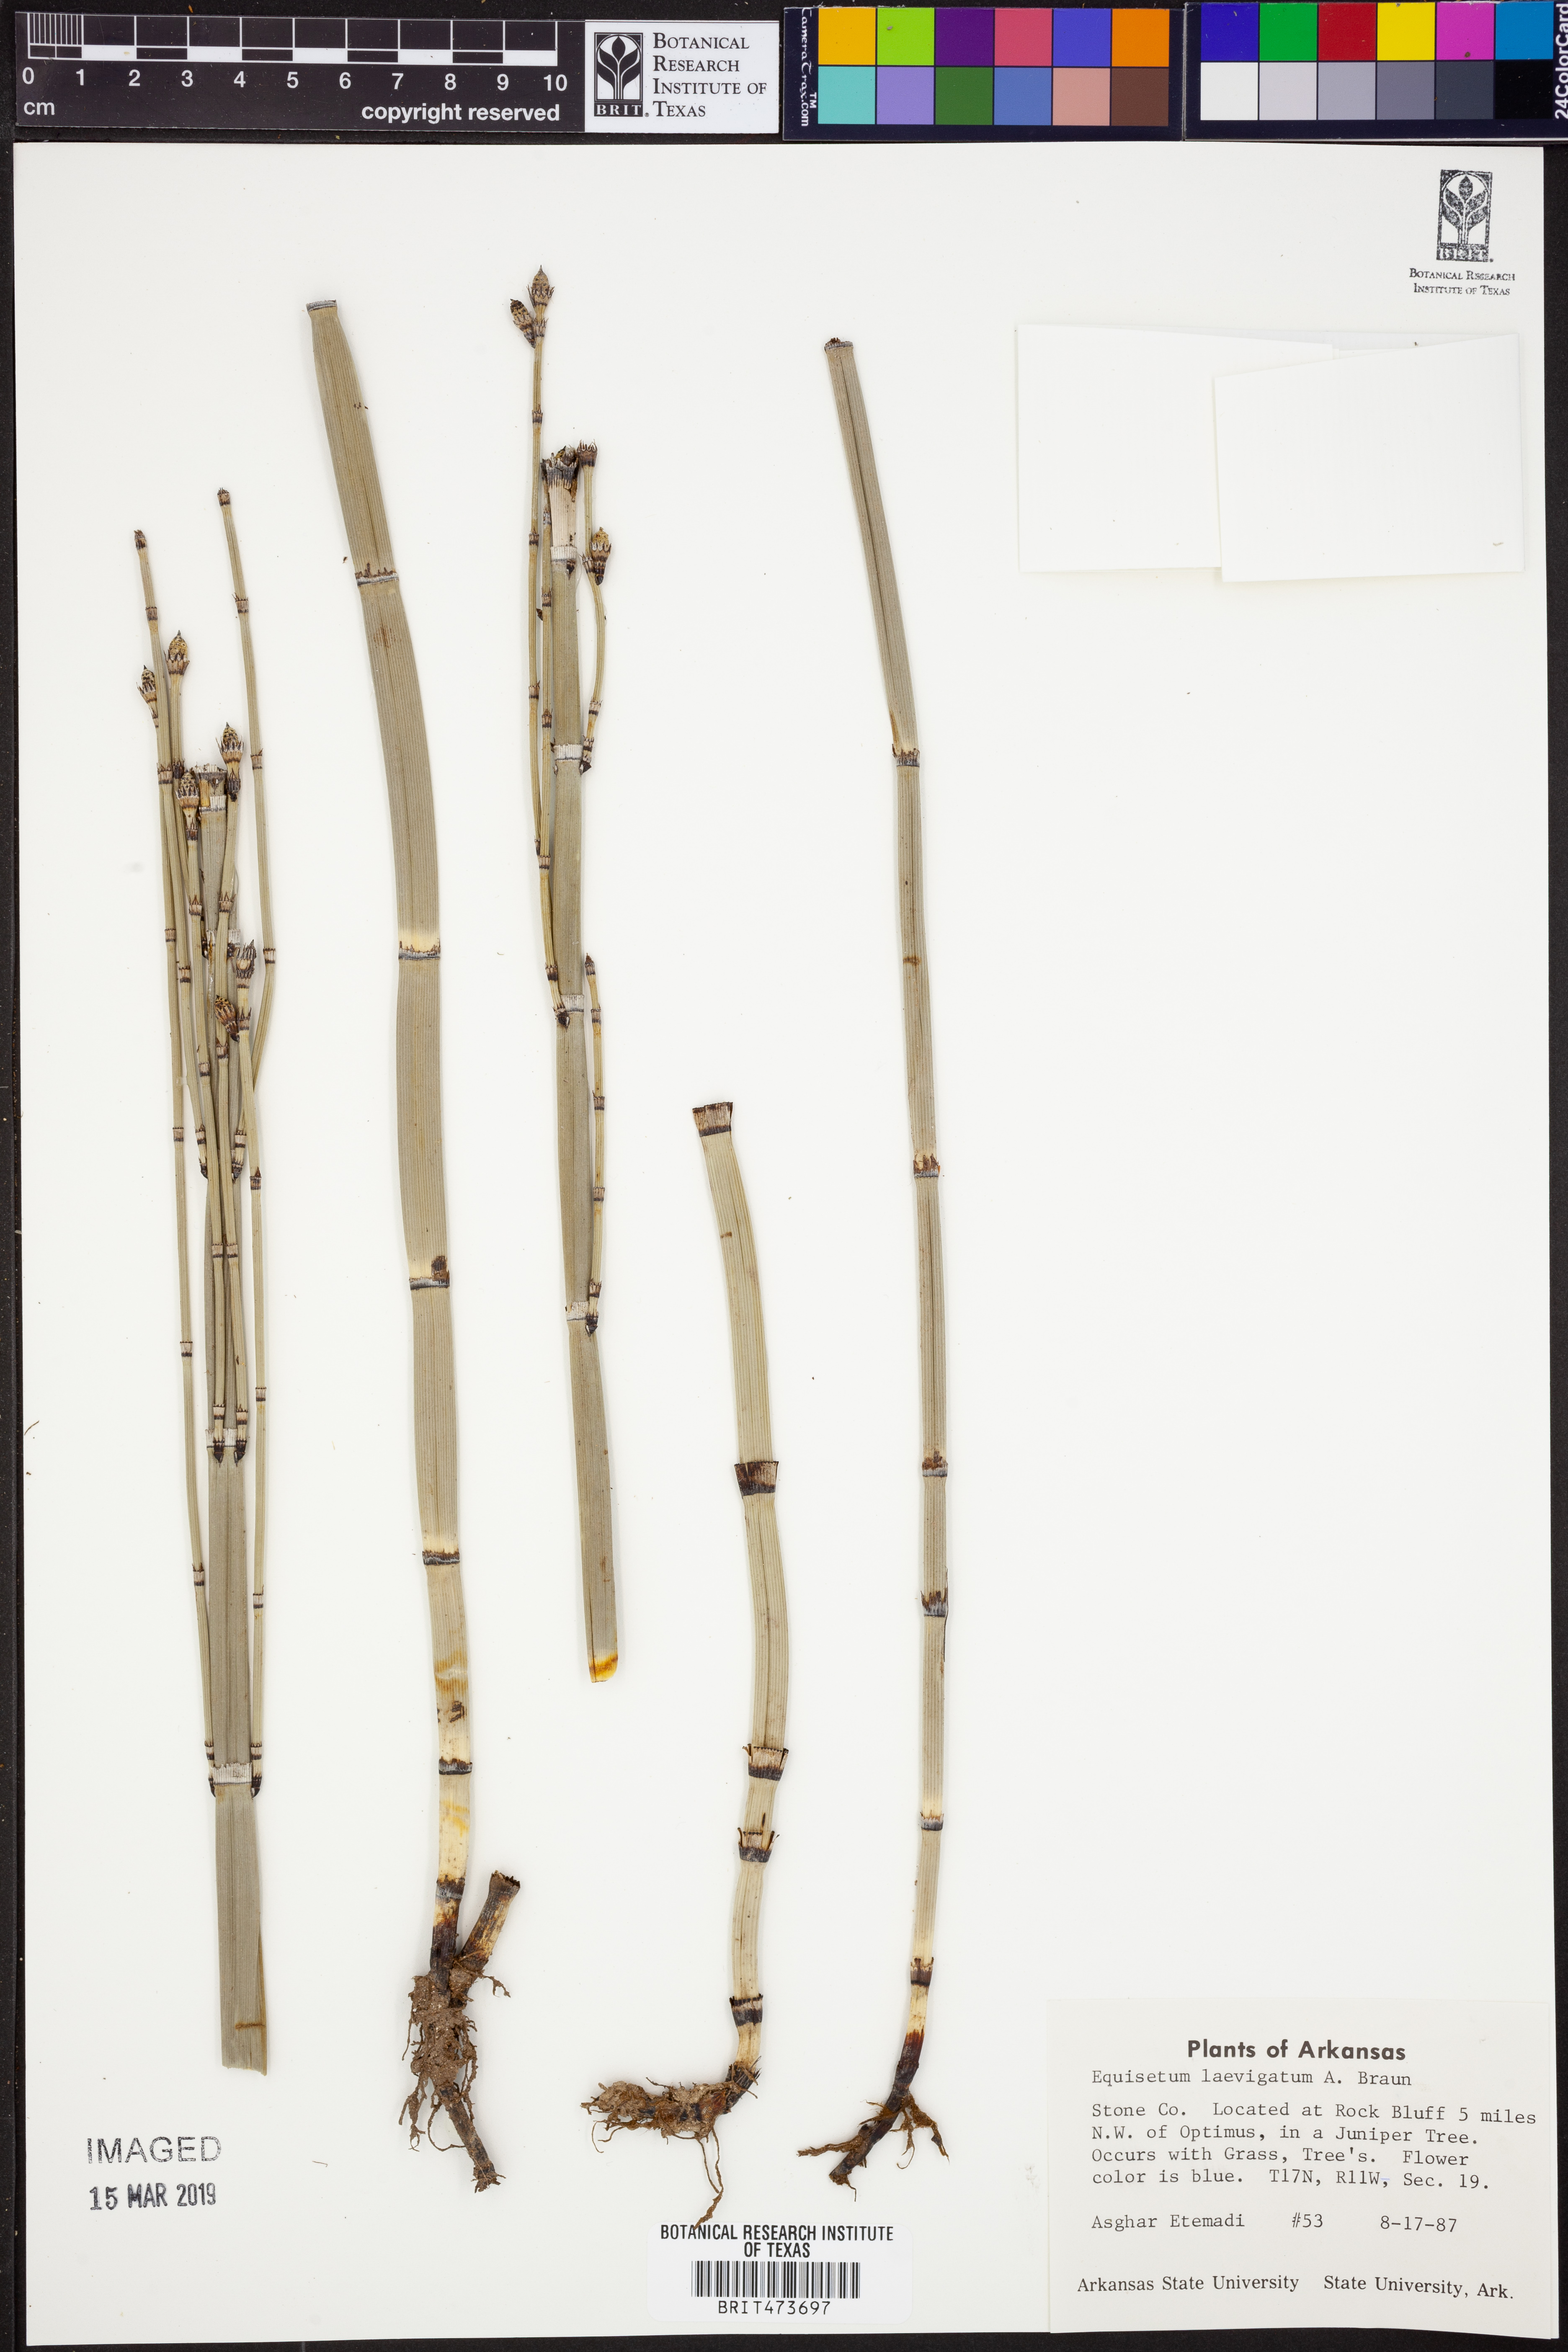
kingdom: Plantae
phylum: Tracheophyta
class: Polypodiopsida
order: Equisetales
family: Equisetaceae
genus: Equisetum
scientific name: Equisetum laevigatum
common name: Smooth scouring-rush
